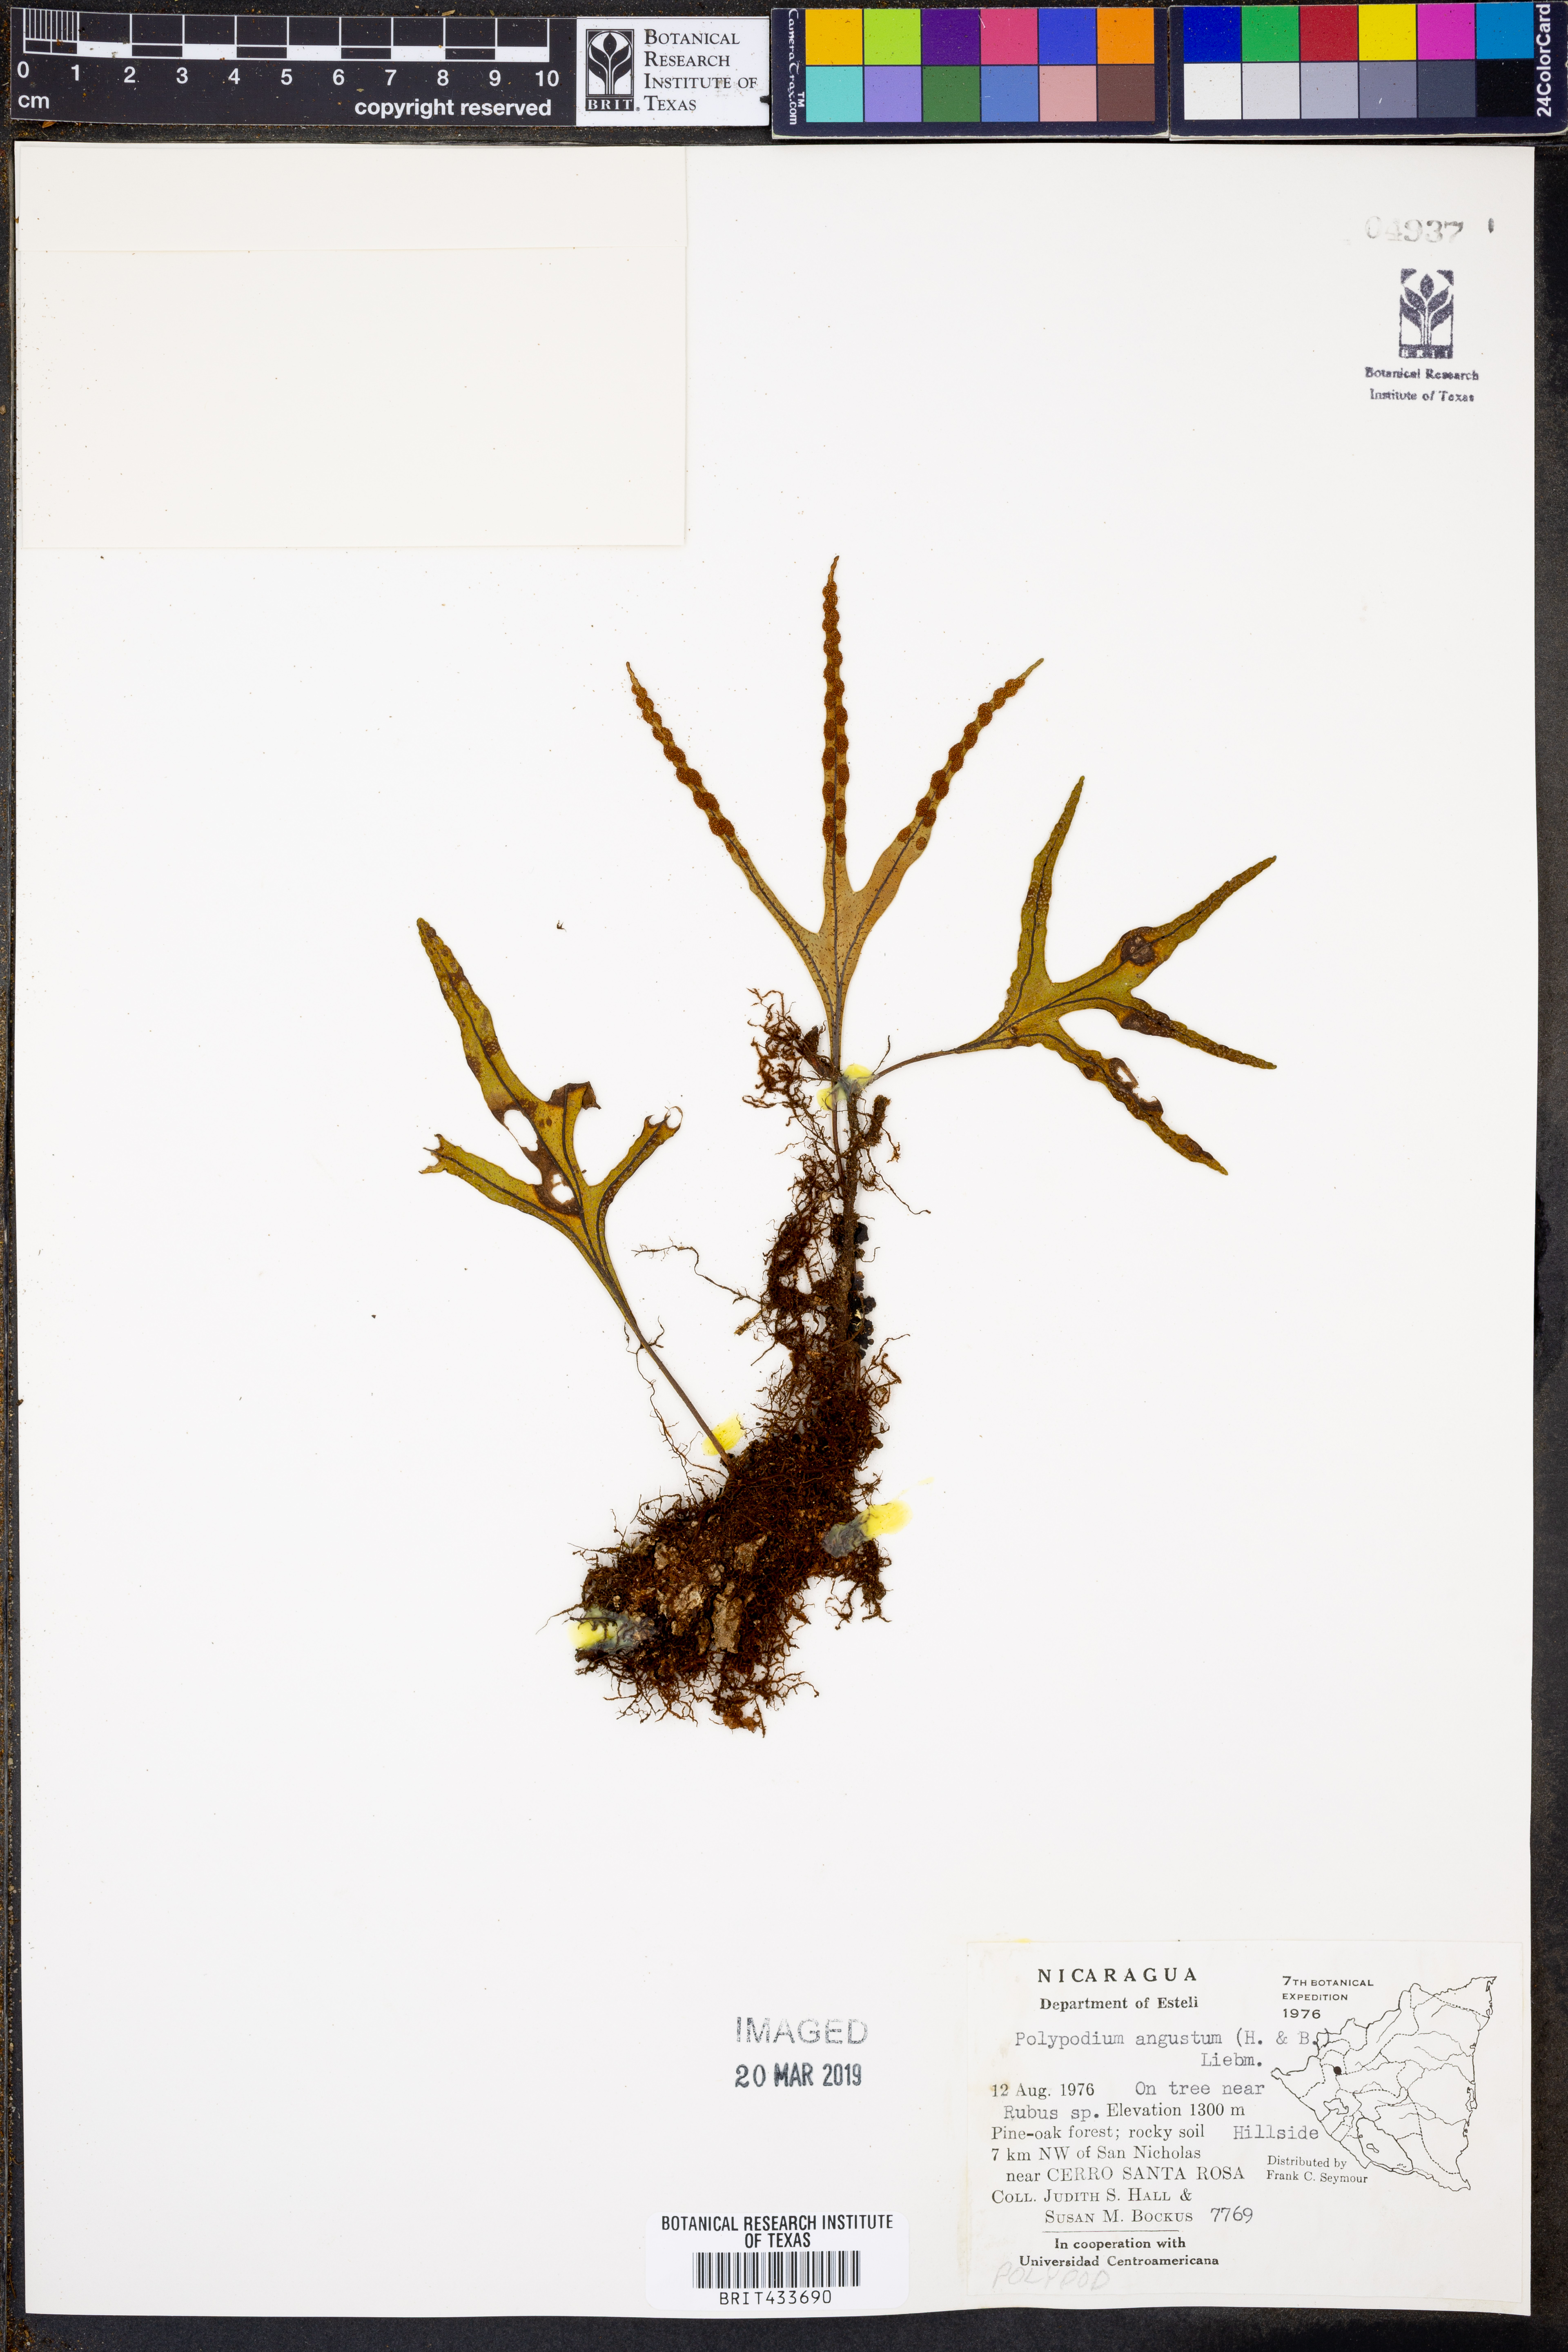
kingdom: Plantae
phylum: Tracheophyta
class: Polypodiopsida
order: Polypodiales
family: Polypodiaceae
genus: Pleopeltis
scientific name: Pleopeltis angusta
